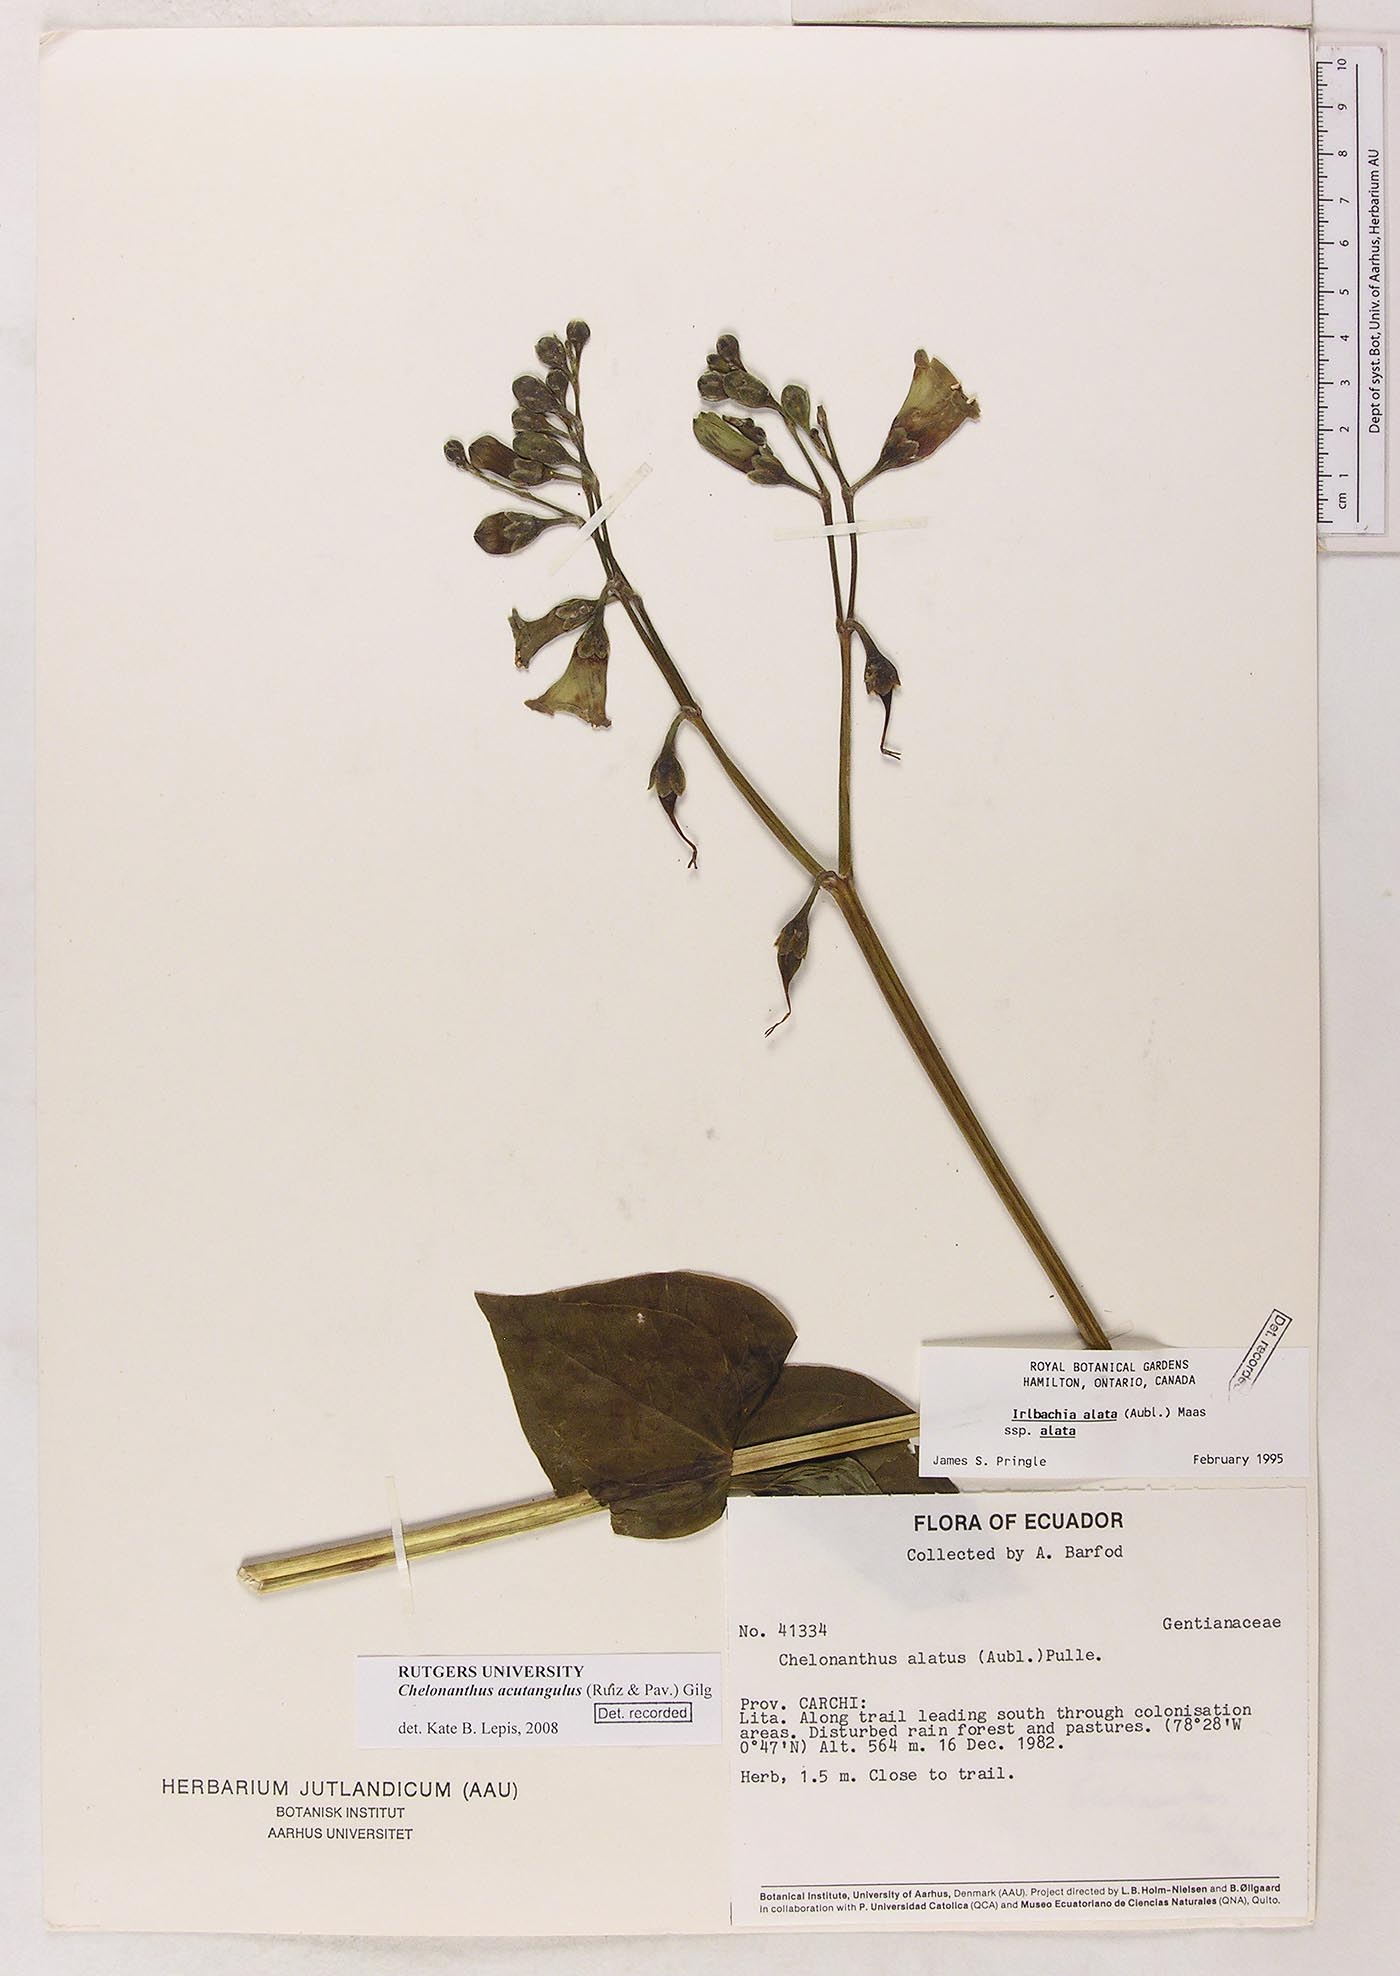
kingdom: Plantae
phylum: Tracheophyta
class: Magnoliopsida
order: Gentianales
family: Gentianaceae
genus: Chelonanthus
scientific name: Chelonanthus alatus
